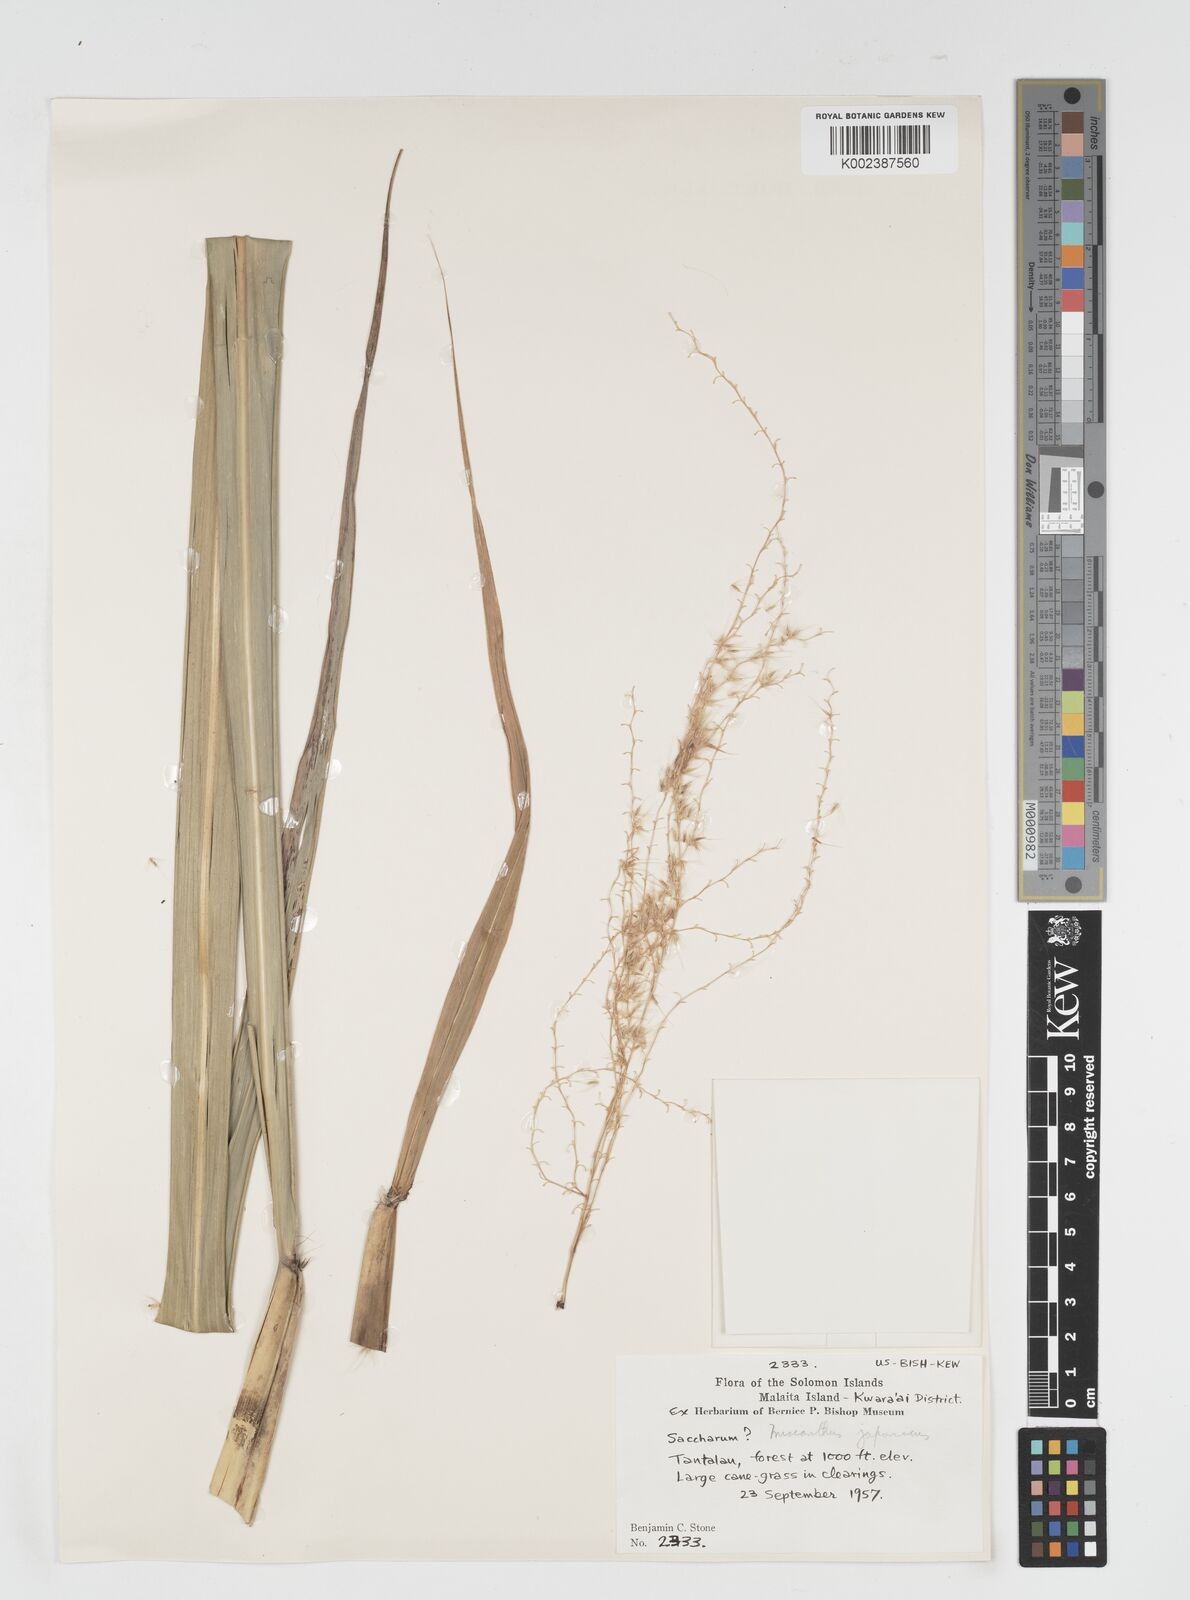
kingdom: Plantae
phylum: Tracheophyta
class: Liliopsida
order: Poales
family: Poaceae
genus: Miscanthus
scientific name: Miscanthus floridulus
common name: Pacific island silvergrass
